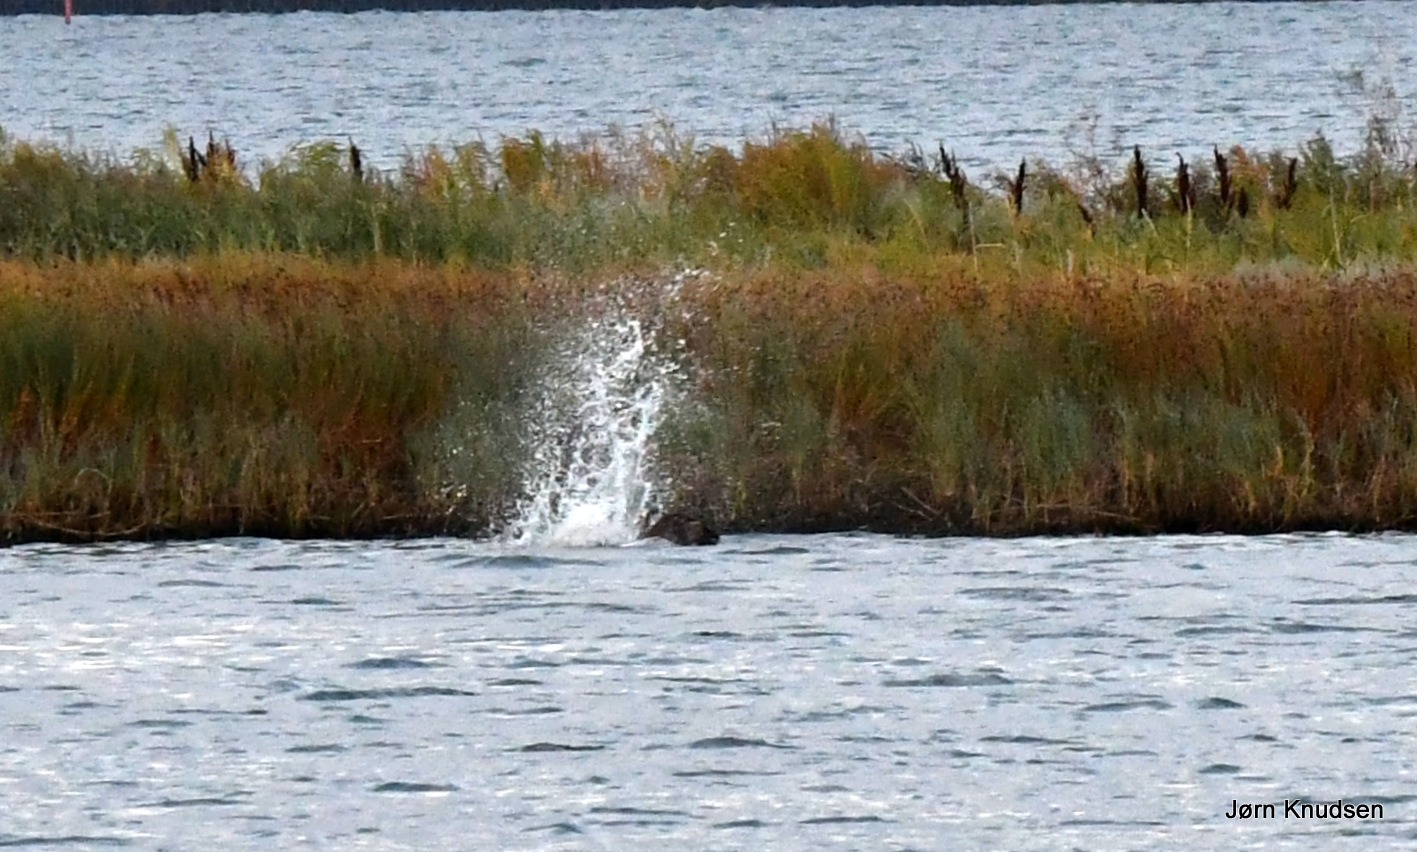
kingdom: Animalia
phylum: Chordata
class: Aves
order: Accipitriformes
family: Pandionidae
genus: Pandion
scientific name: Pandion haliaetus
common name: Fiskeørn
